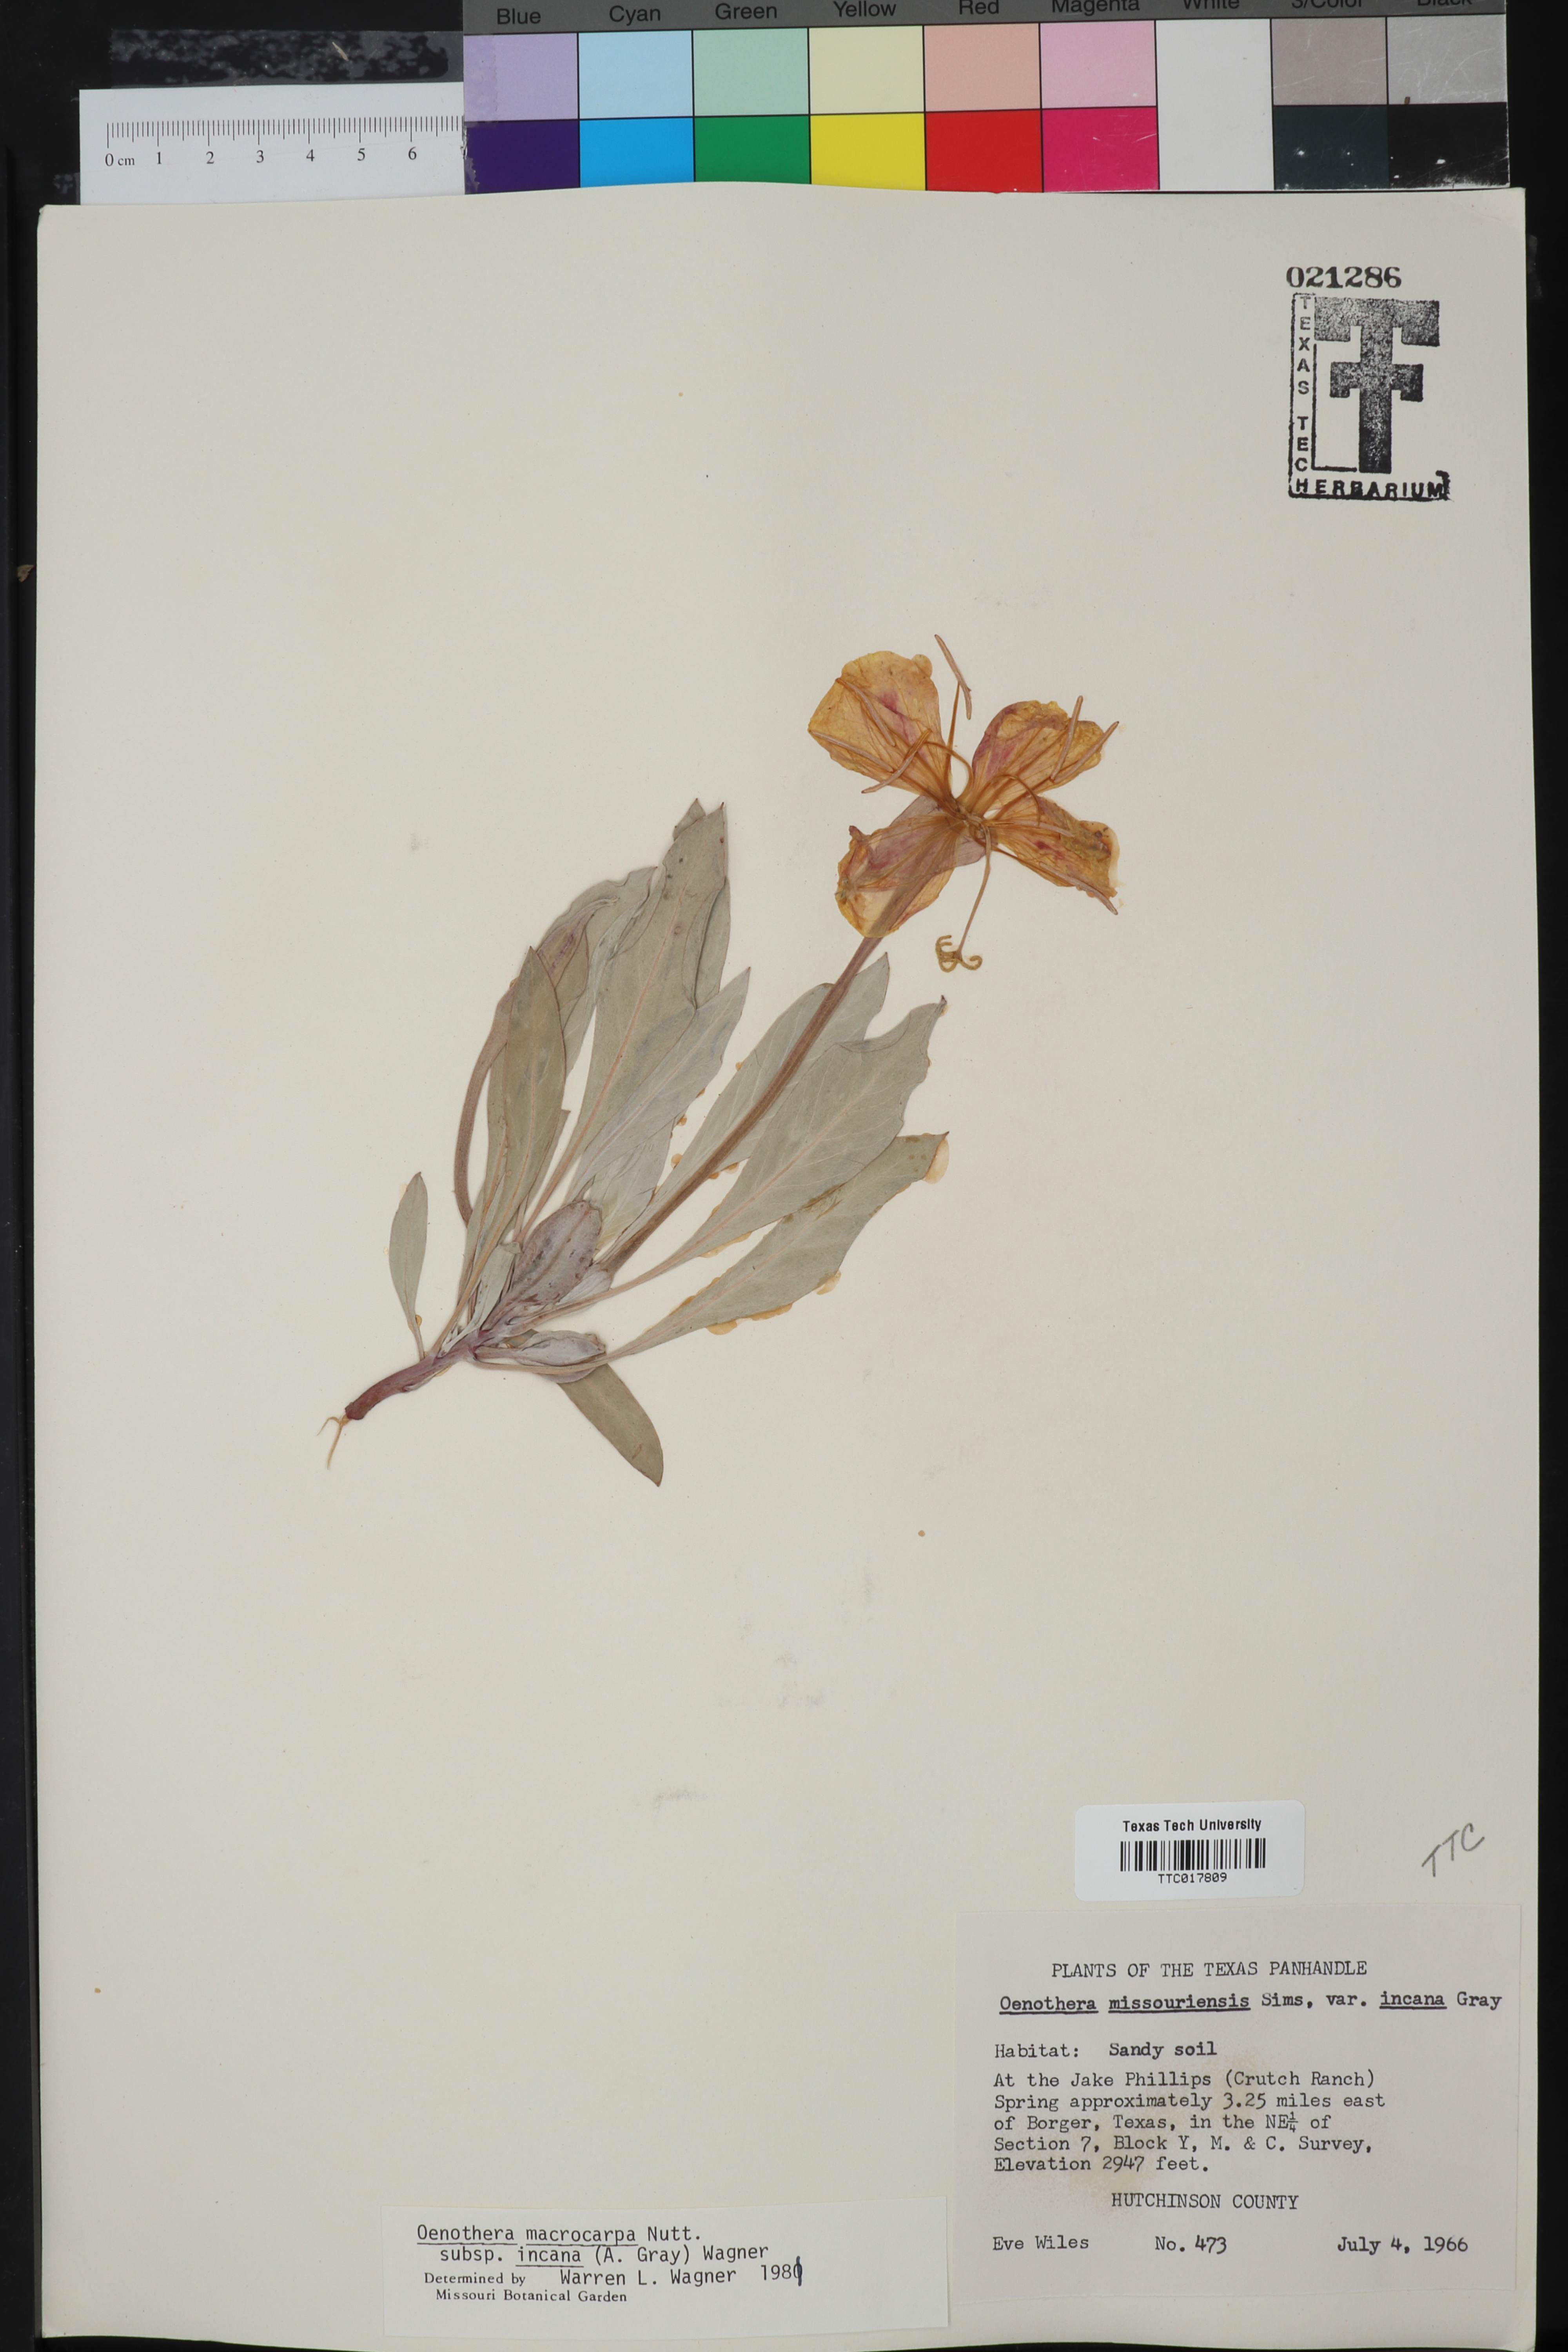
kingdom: Plantae
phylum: Tracheophyta
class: Magnoliopsida
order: Myrtales
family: Onagraceae
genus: Oenothera
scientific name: Oenothera macrocarpa
